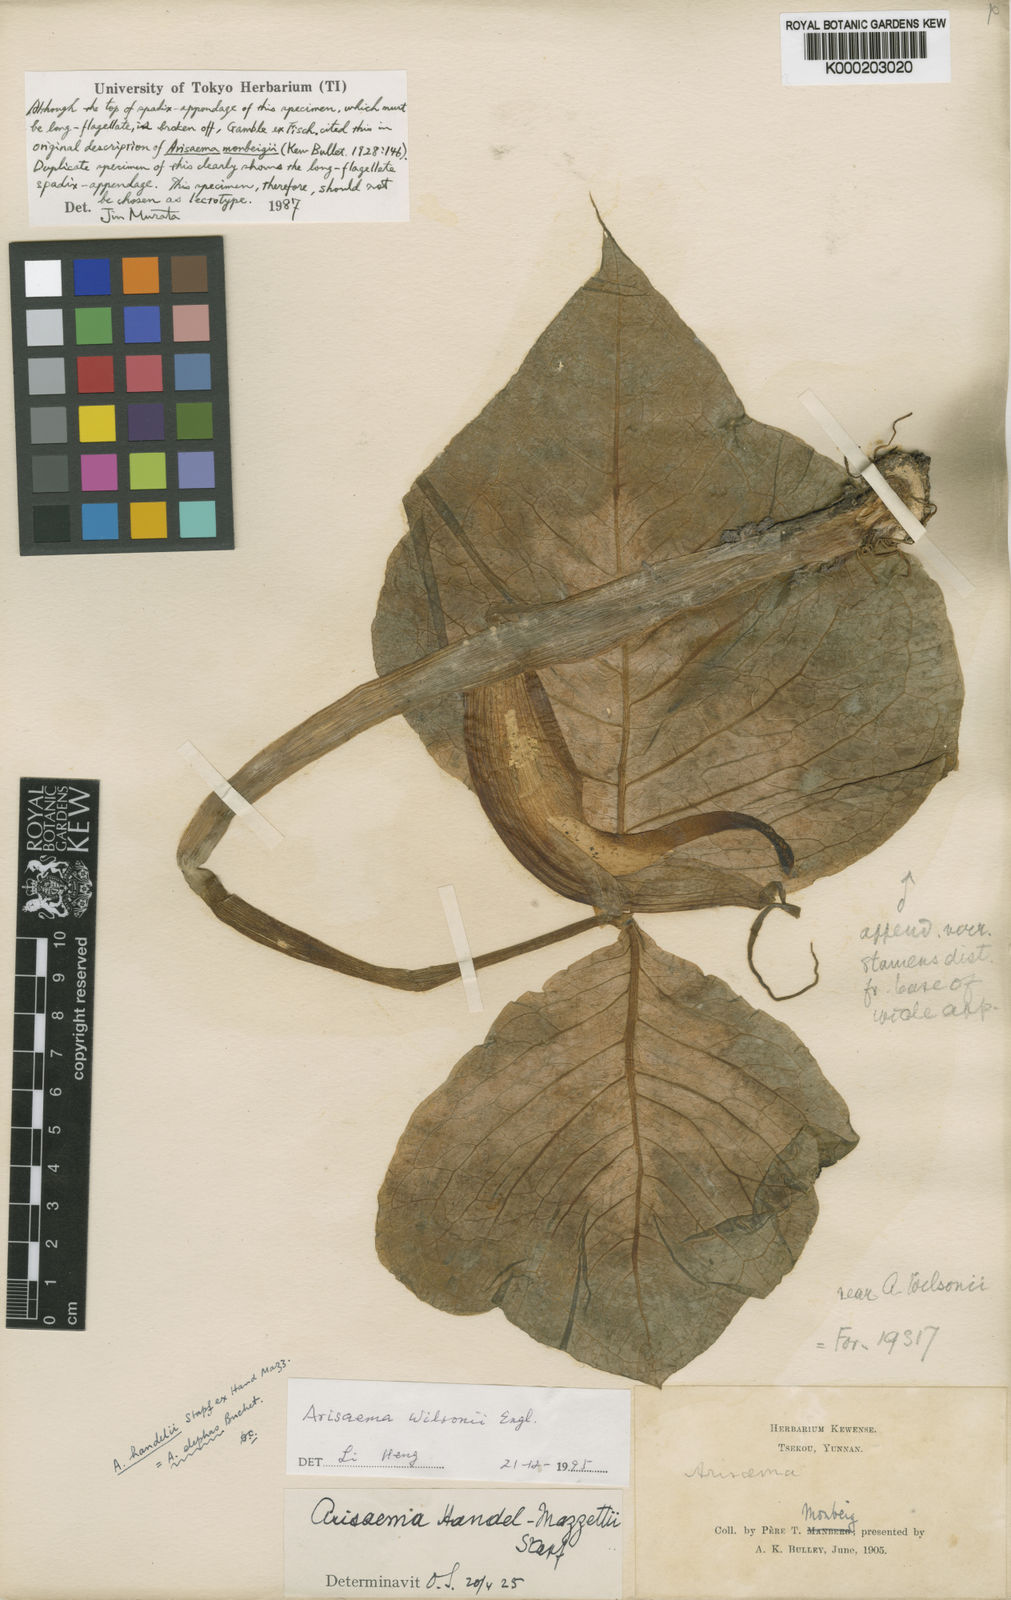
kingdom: Plantae
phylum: Tracheophyta
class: Liliopsida
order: Alismatales
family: Araceae
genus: Arisaema
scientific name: Arisaema wilsonii
